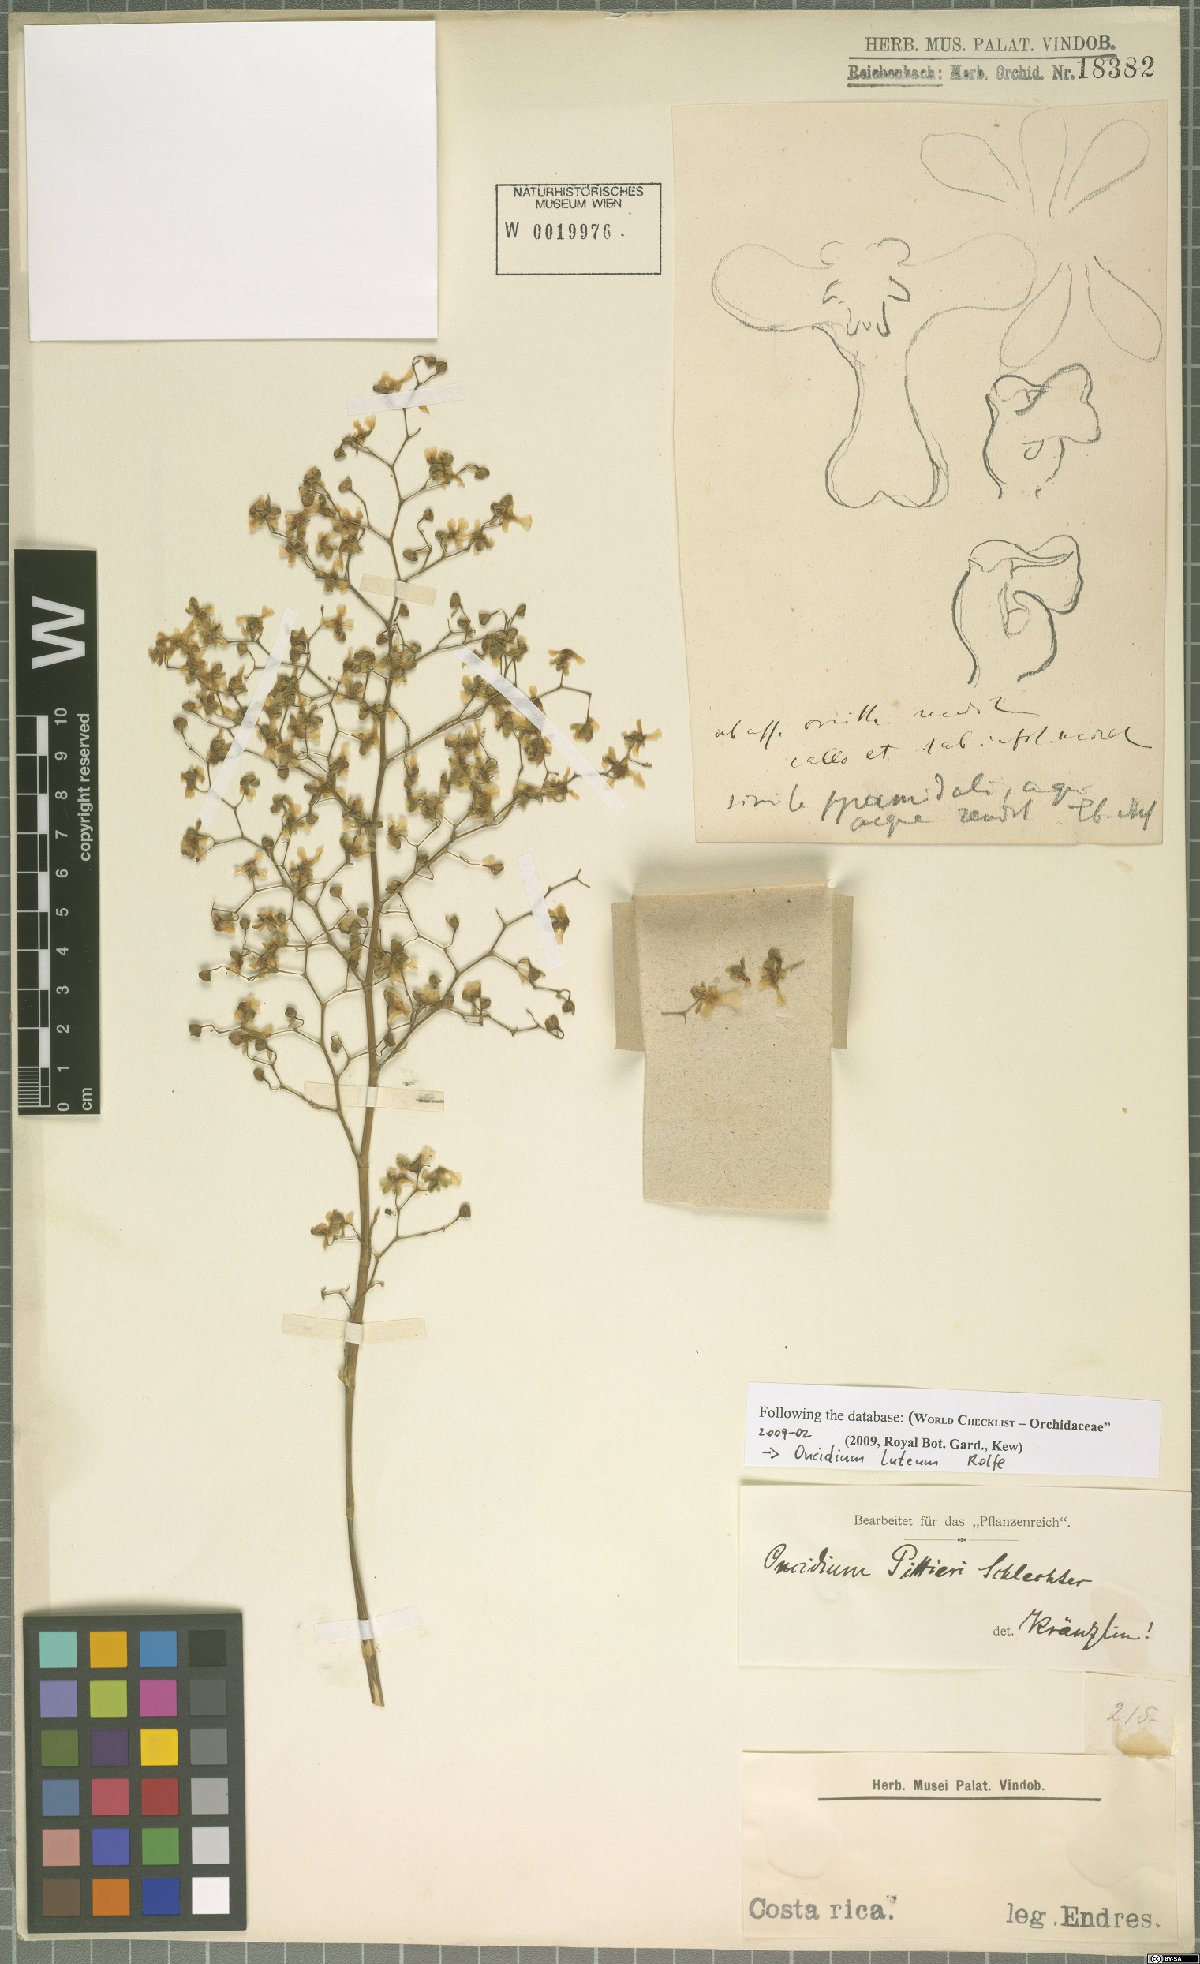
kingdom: Plantae
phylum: Tracheophyta
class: Liliopsida
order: Asparagales
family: Orchidaceae
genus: Oncidium
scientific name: Oncidium luteum
